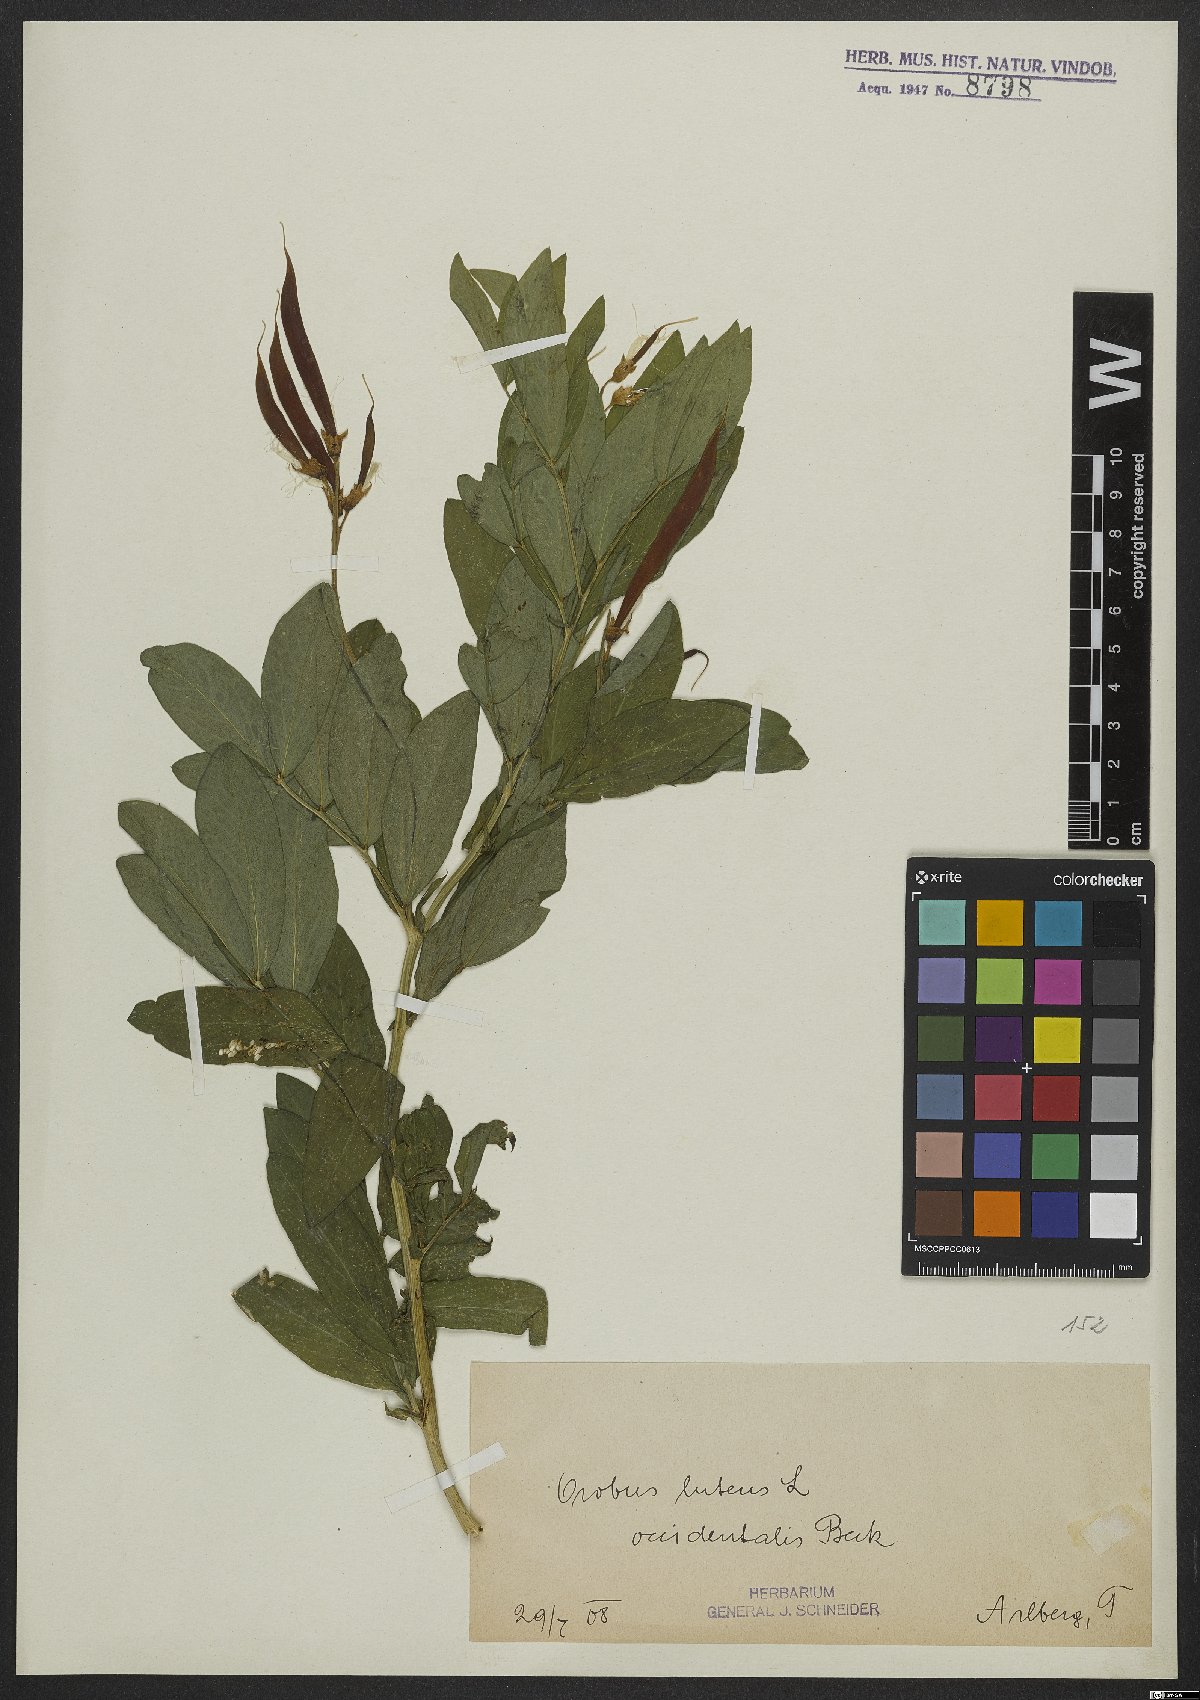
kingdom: Plantae
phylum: Tracheophyta
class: Magnoliopsida
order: Fabales
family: Fabaceae
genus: Lathyrus
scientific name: Lathyrus laevigatus
